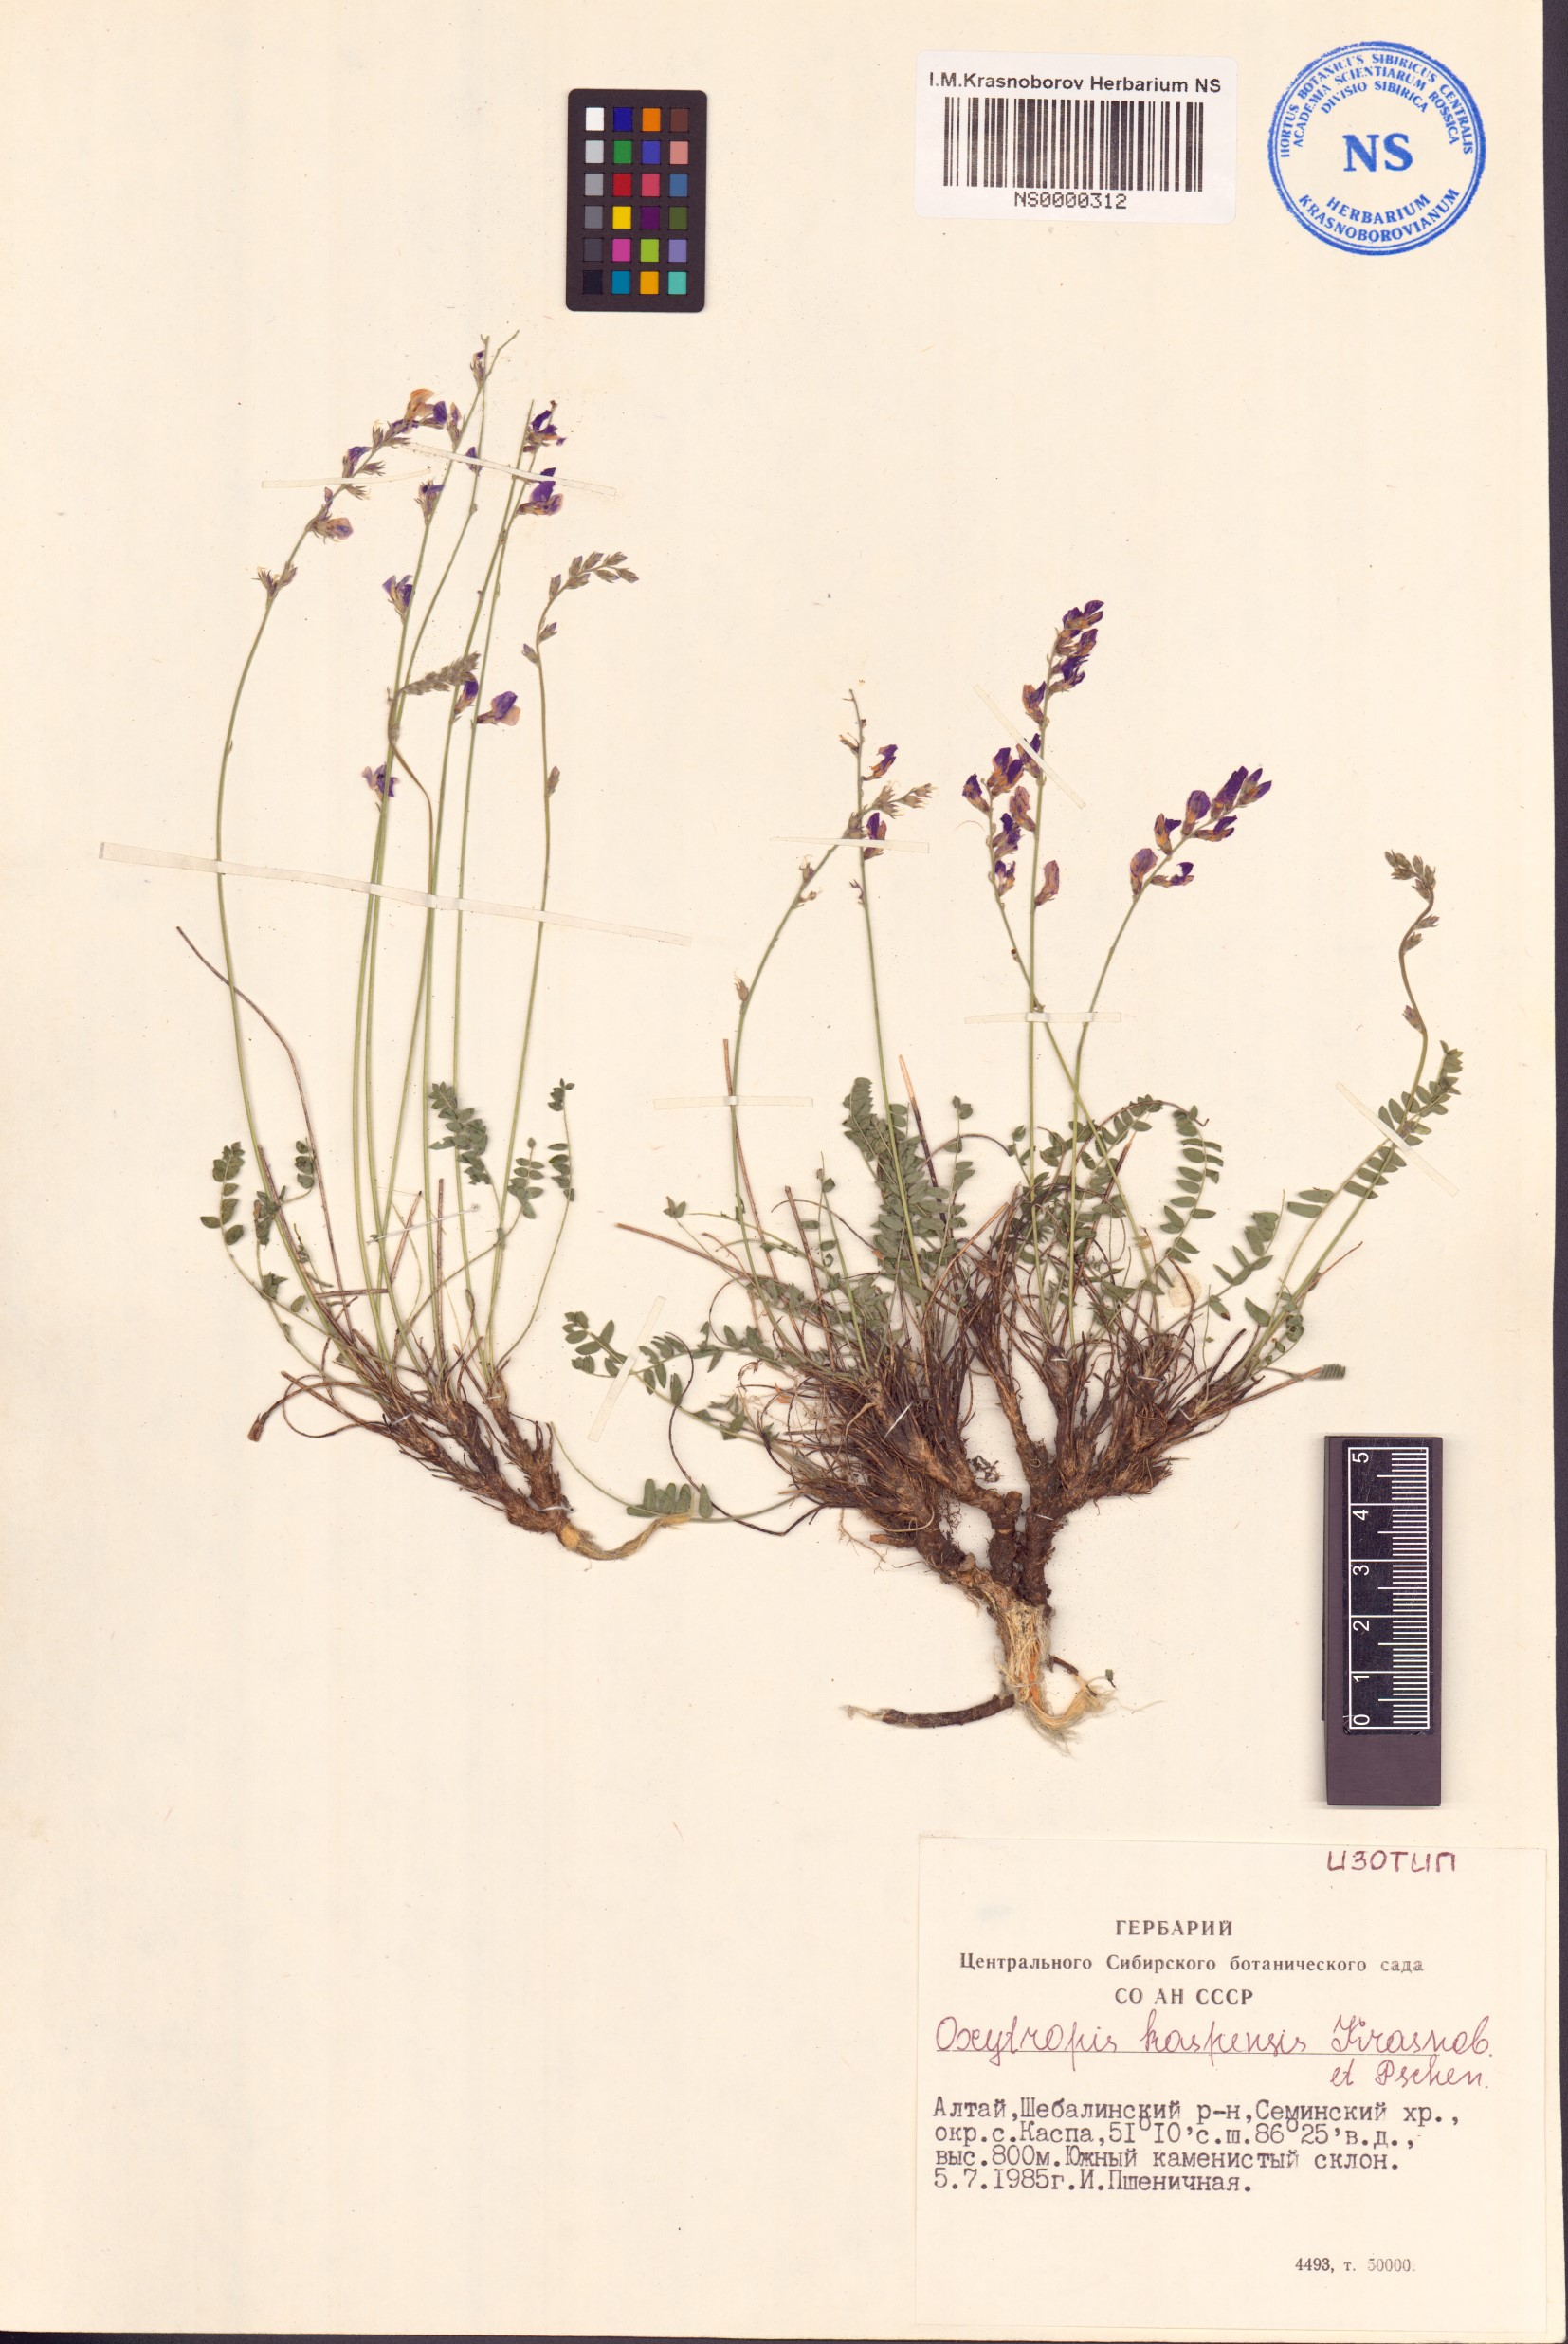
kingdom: Plantae
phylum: Tracheophyta
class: Magnoliopsida
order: Fabales
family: Fabaceae
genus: Oxytropis
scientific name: Oxytropis kaspensis
